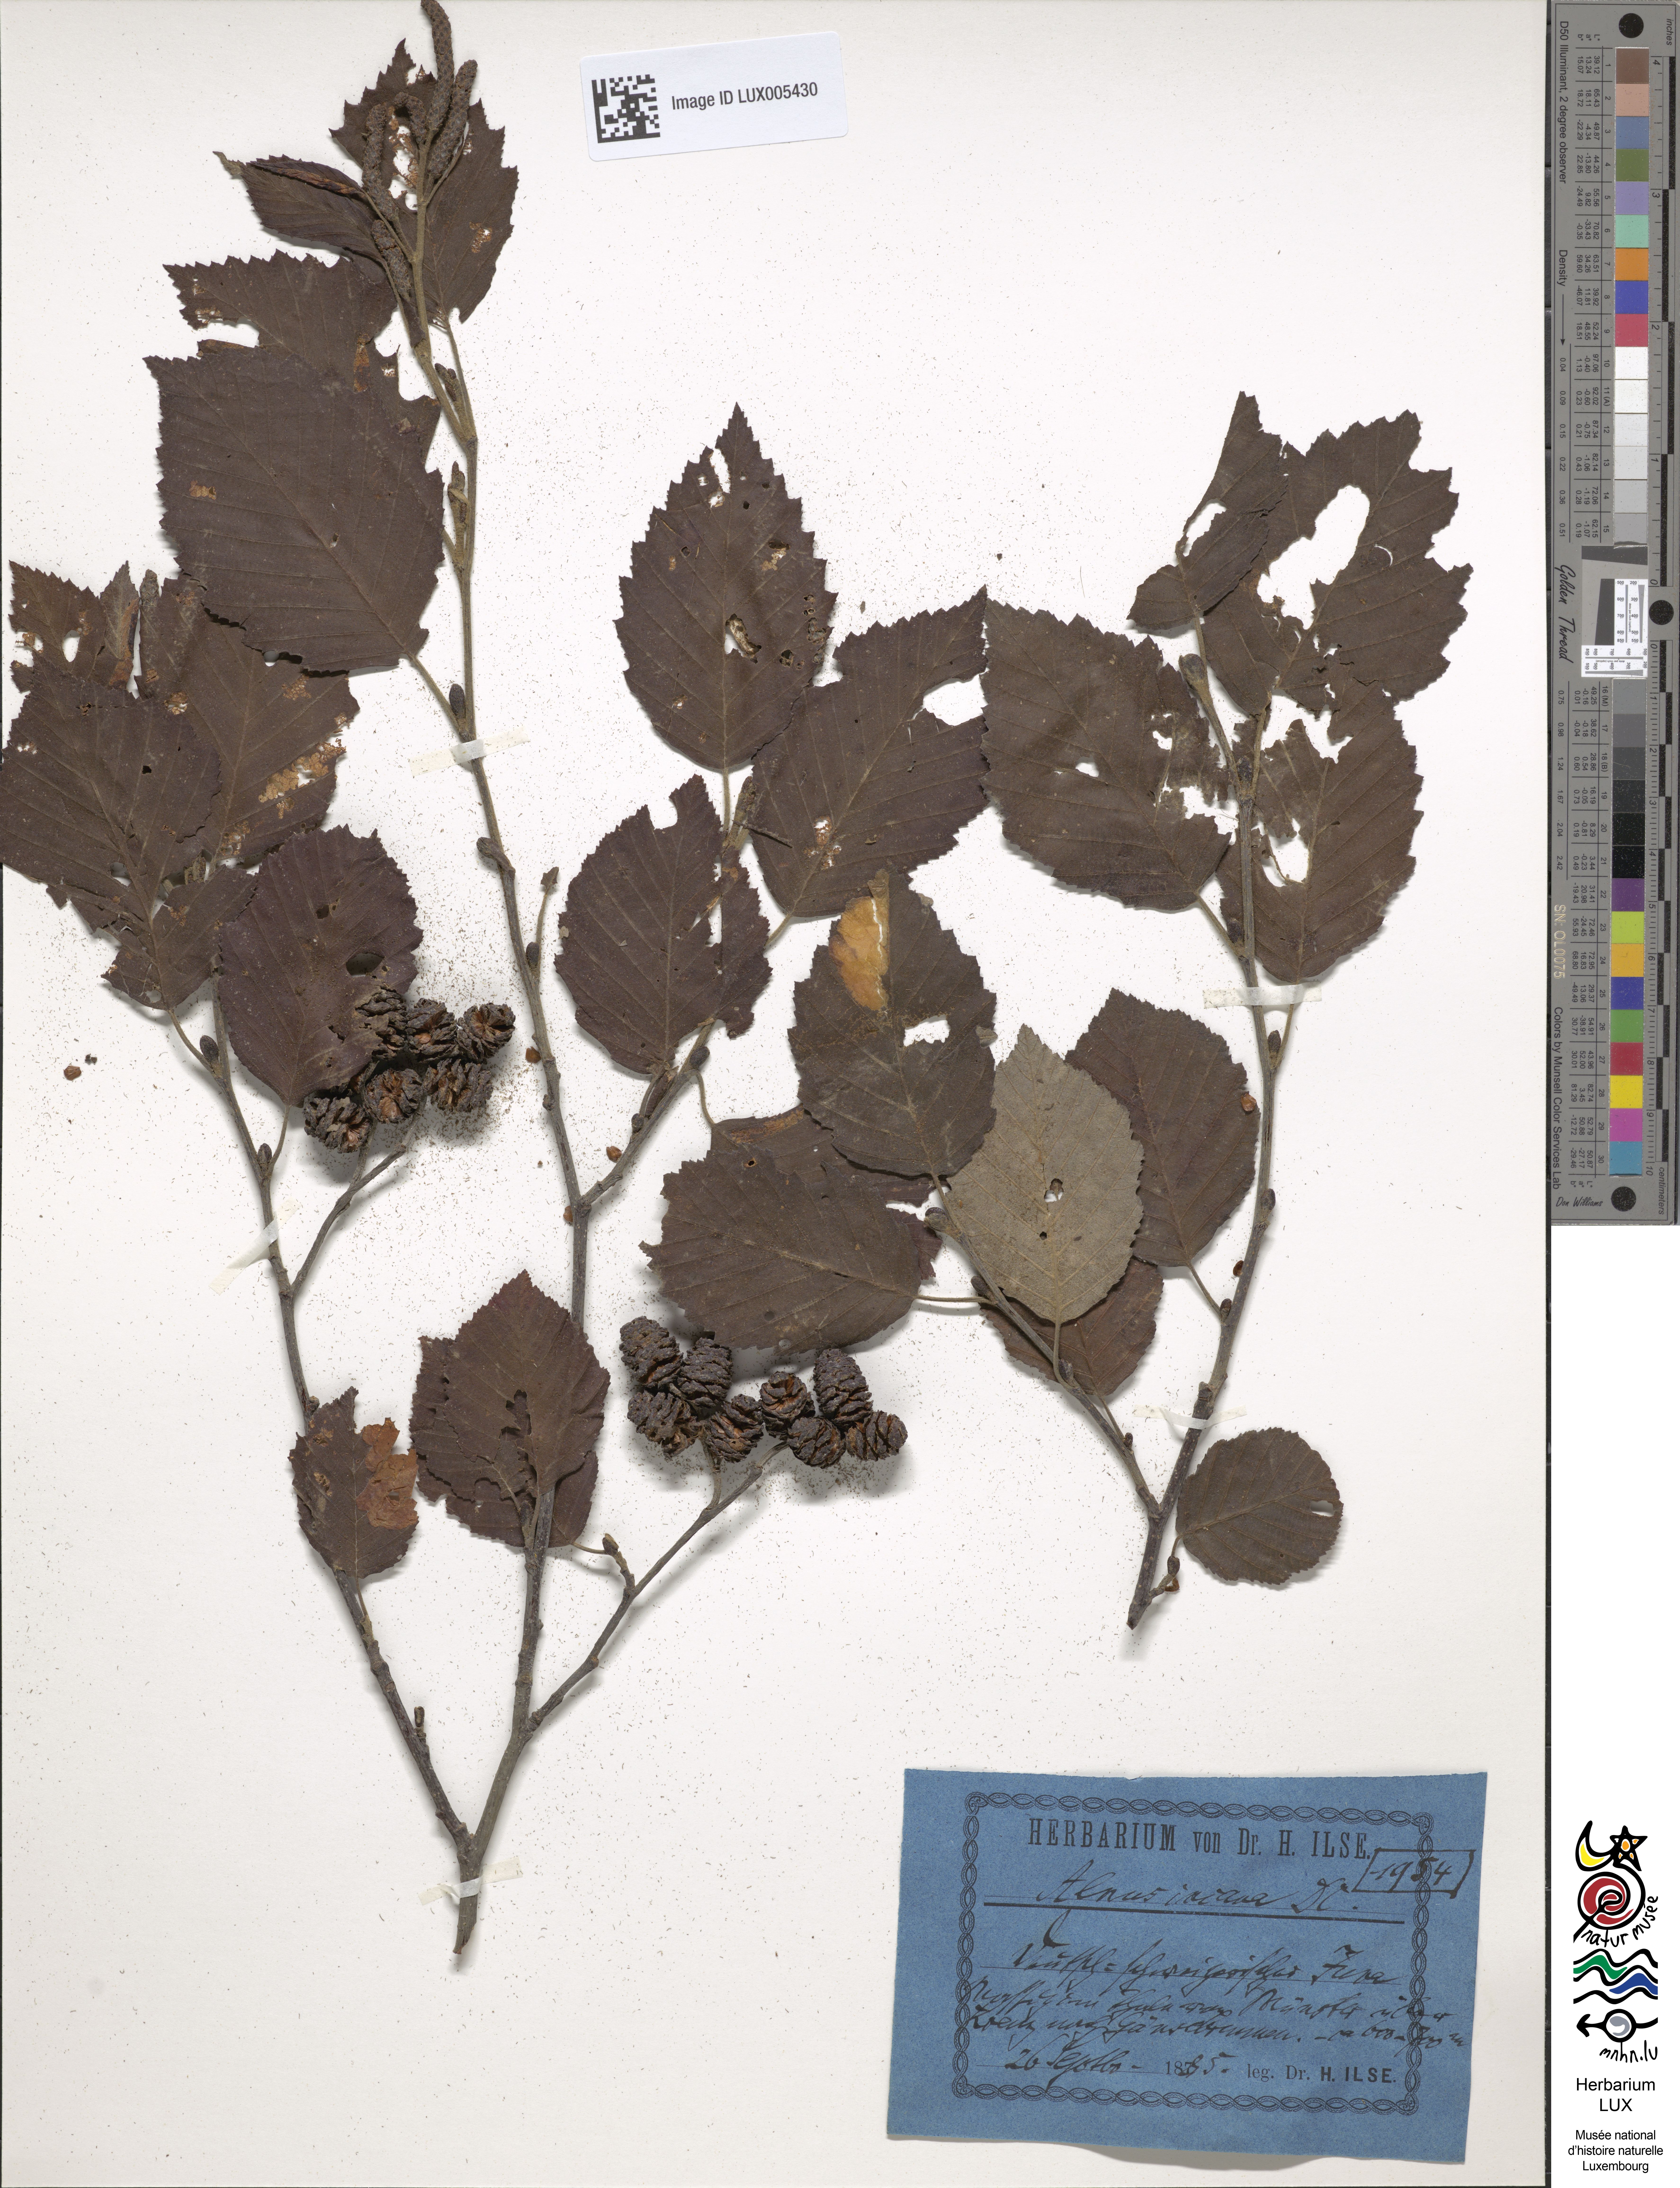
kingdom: Plantae
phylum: Tracheophyta
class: Magnoliopsida
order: Fagales
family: Betulaceae
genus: Alnus
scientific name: Alnus incana
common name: Grey alder
